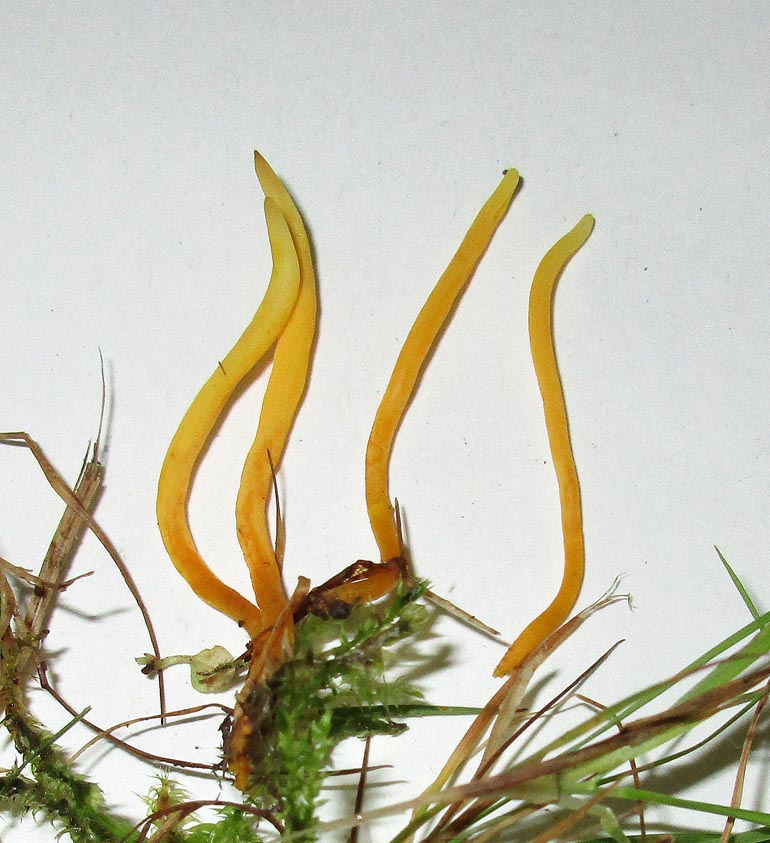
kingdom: Fungi
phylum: Basidiomycota
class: Agaricomycetes
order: Agaricales
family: Clavariaceae
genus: Clavulinopsis
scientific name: Clavulinopsis
